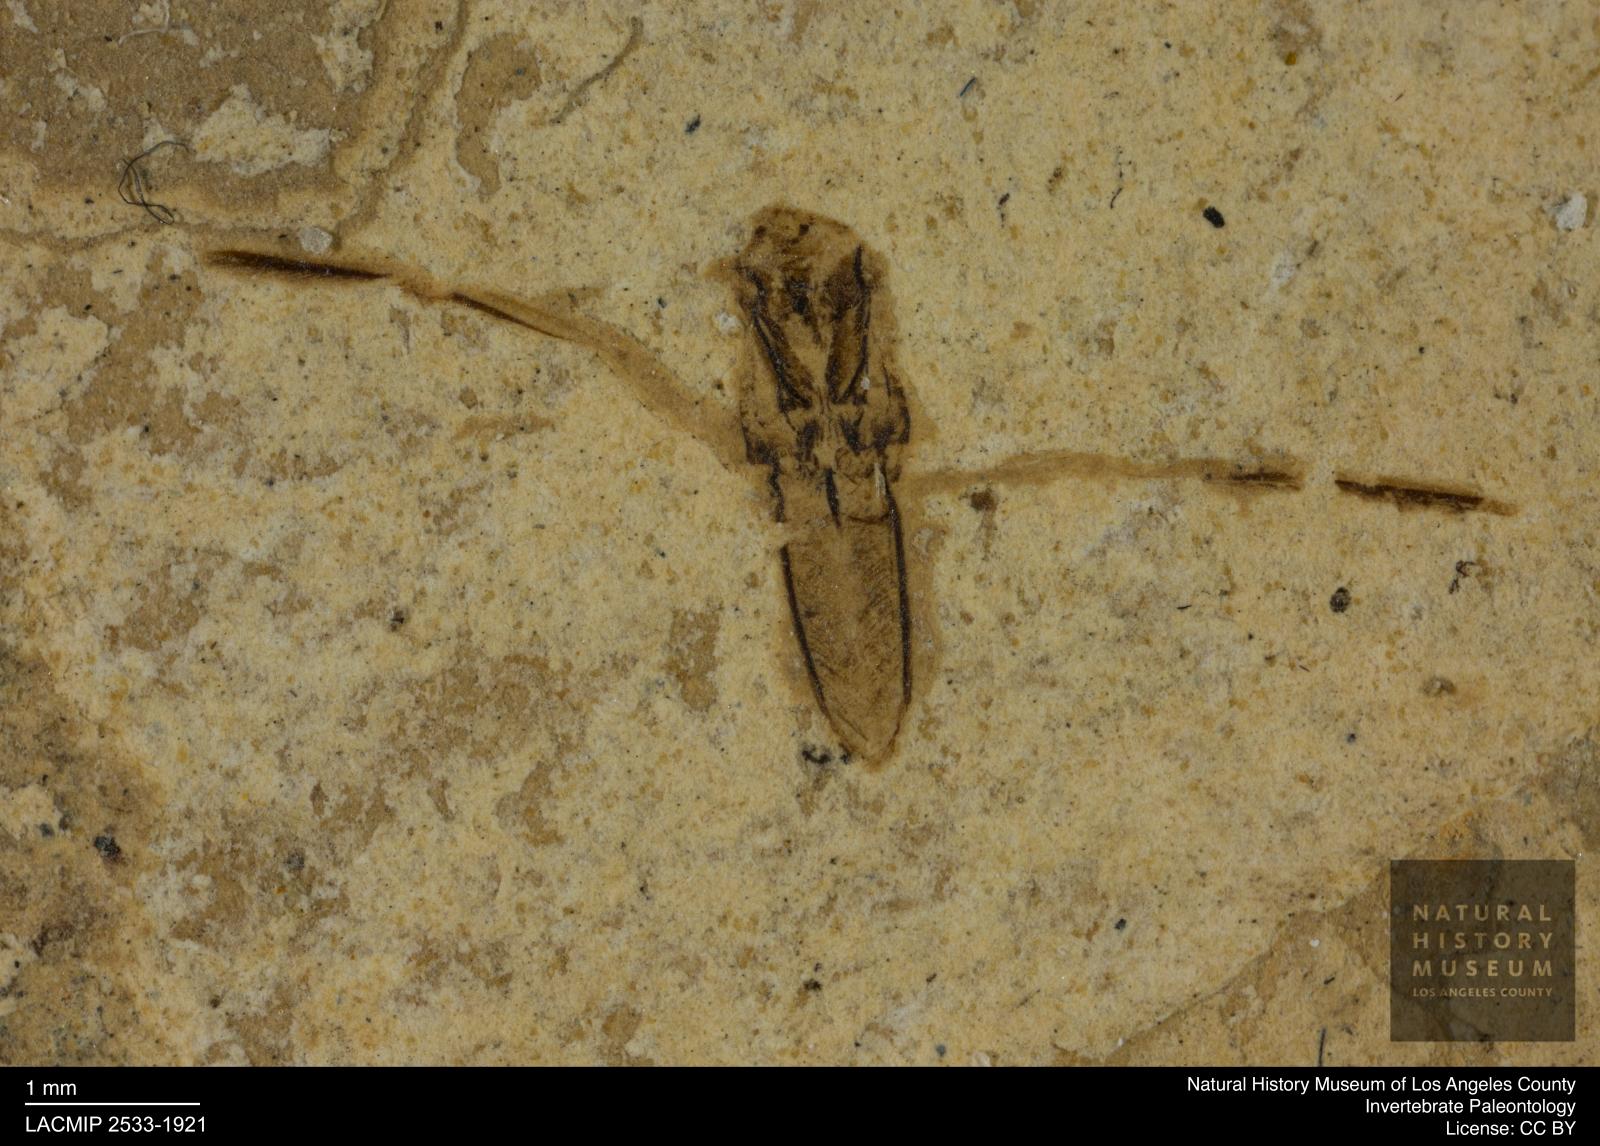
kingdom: Animalia
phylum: Arthropoda
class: Insecta
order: Hemiptera
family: Notonectidae
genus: Notonecta
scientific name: Notonecta
